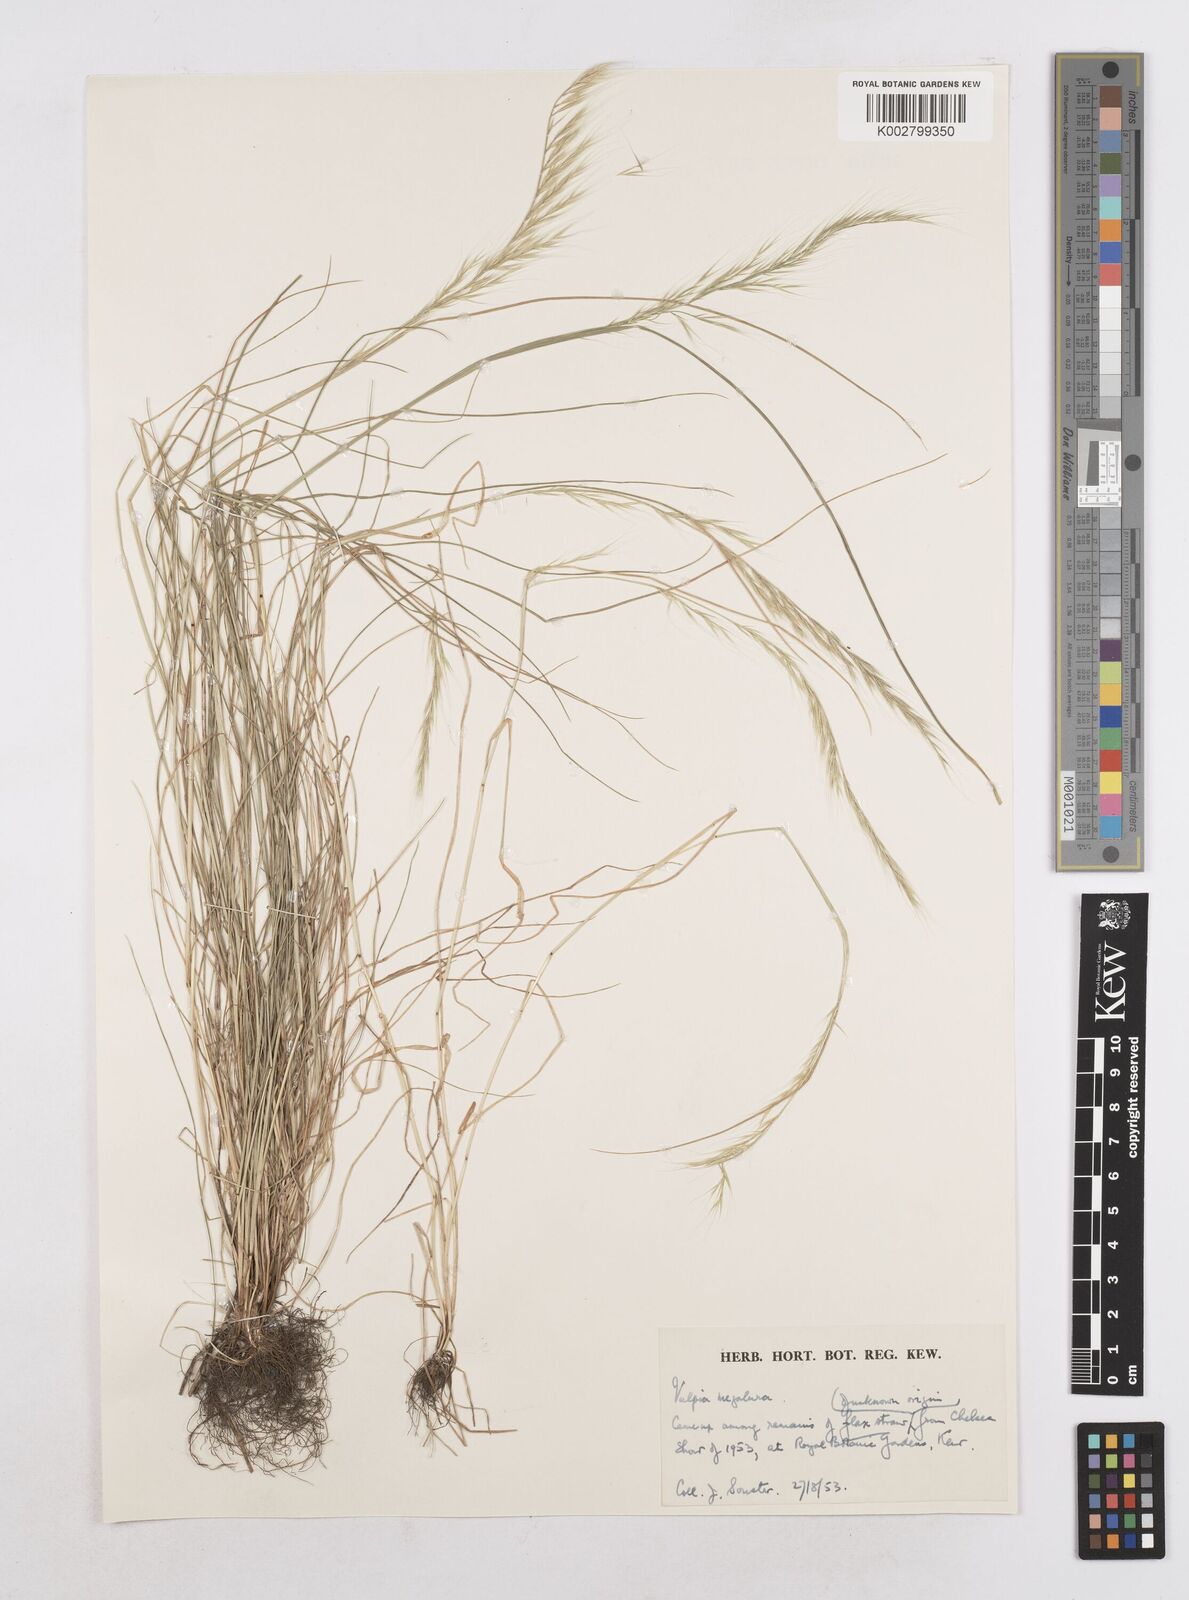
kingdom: Plantae
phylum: Tracheophyta
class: Liliopsida
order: Poales
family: Poaceae
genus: Festuca
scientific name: Festuca myuros
